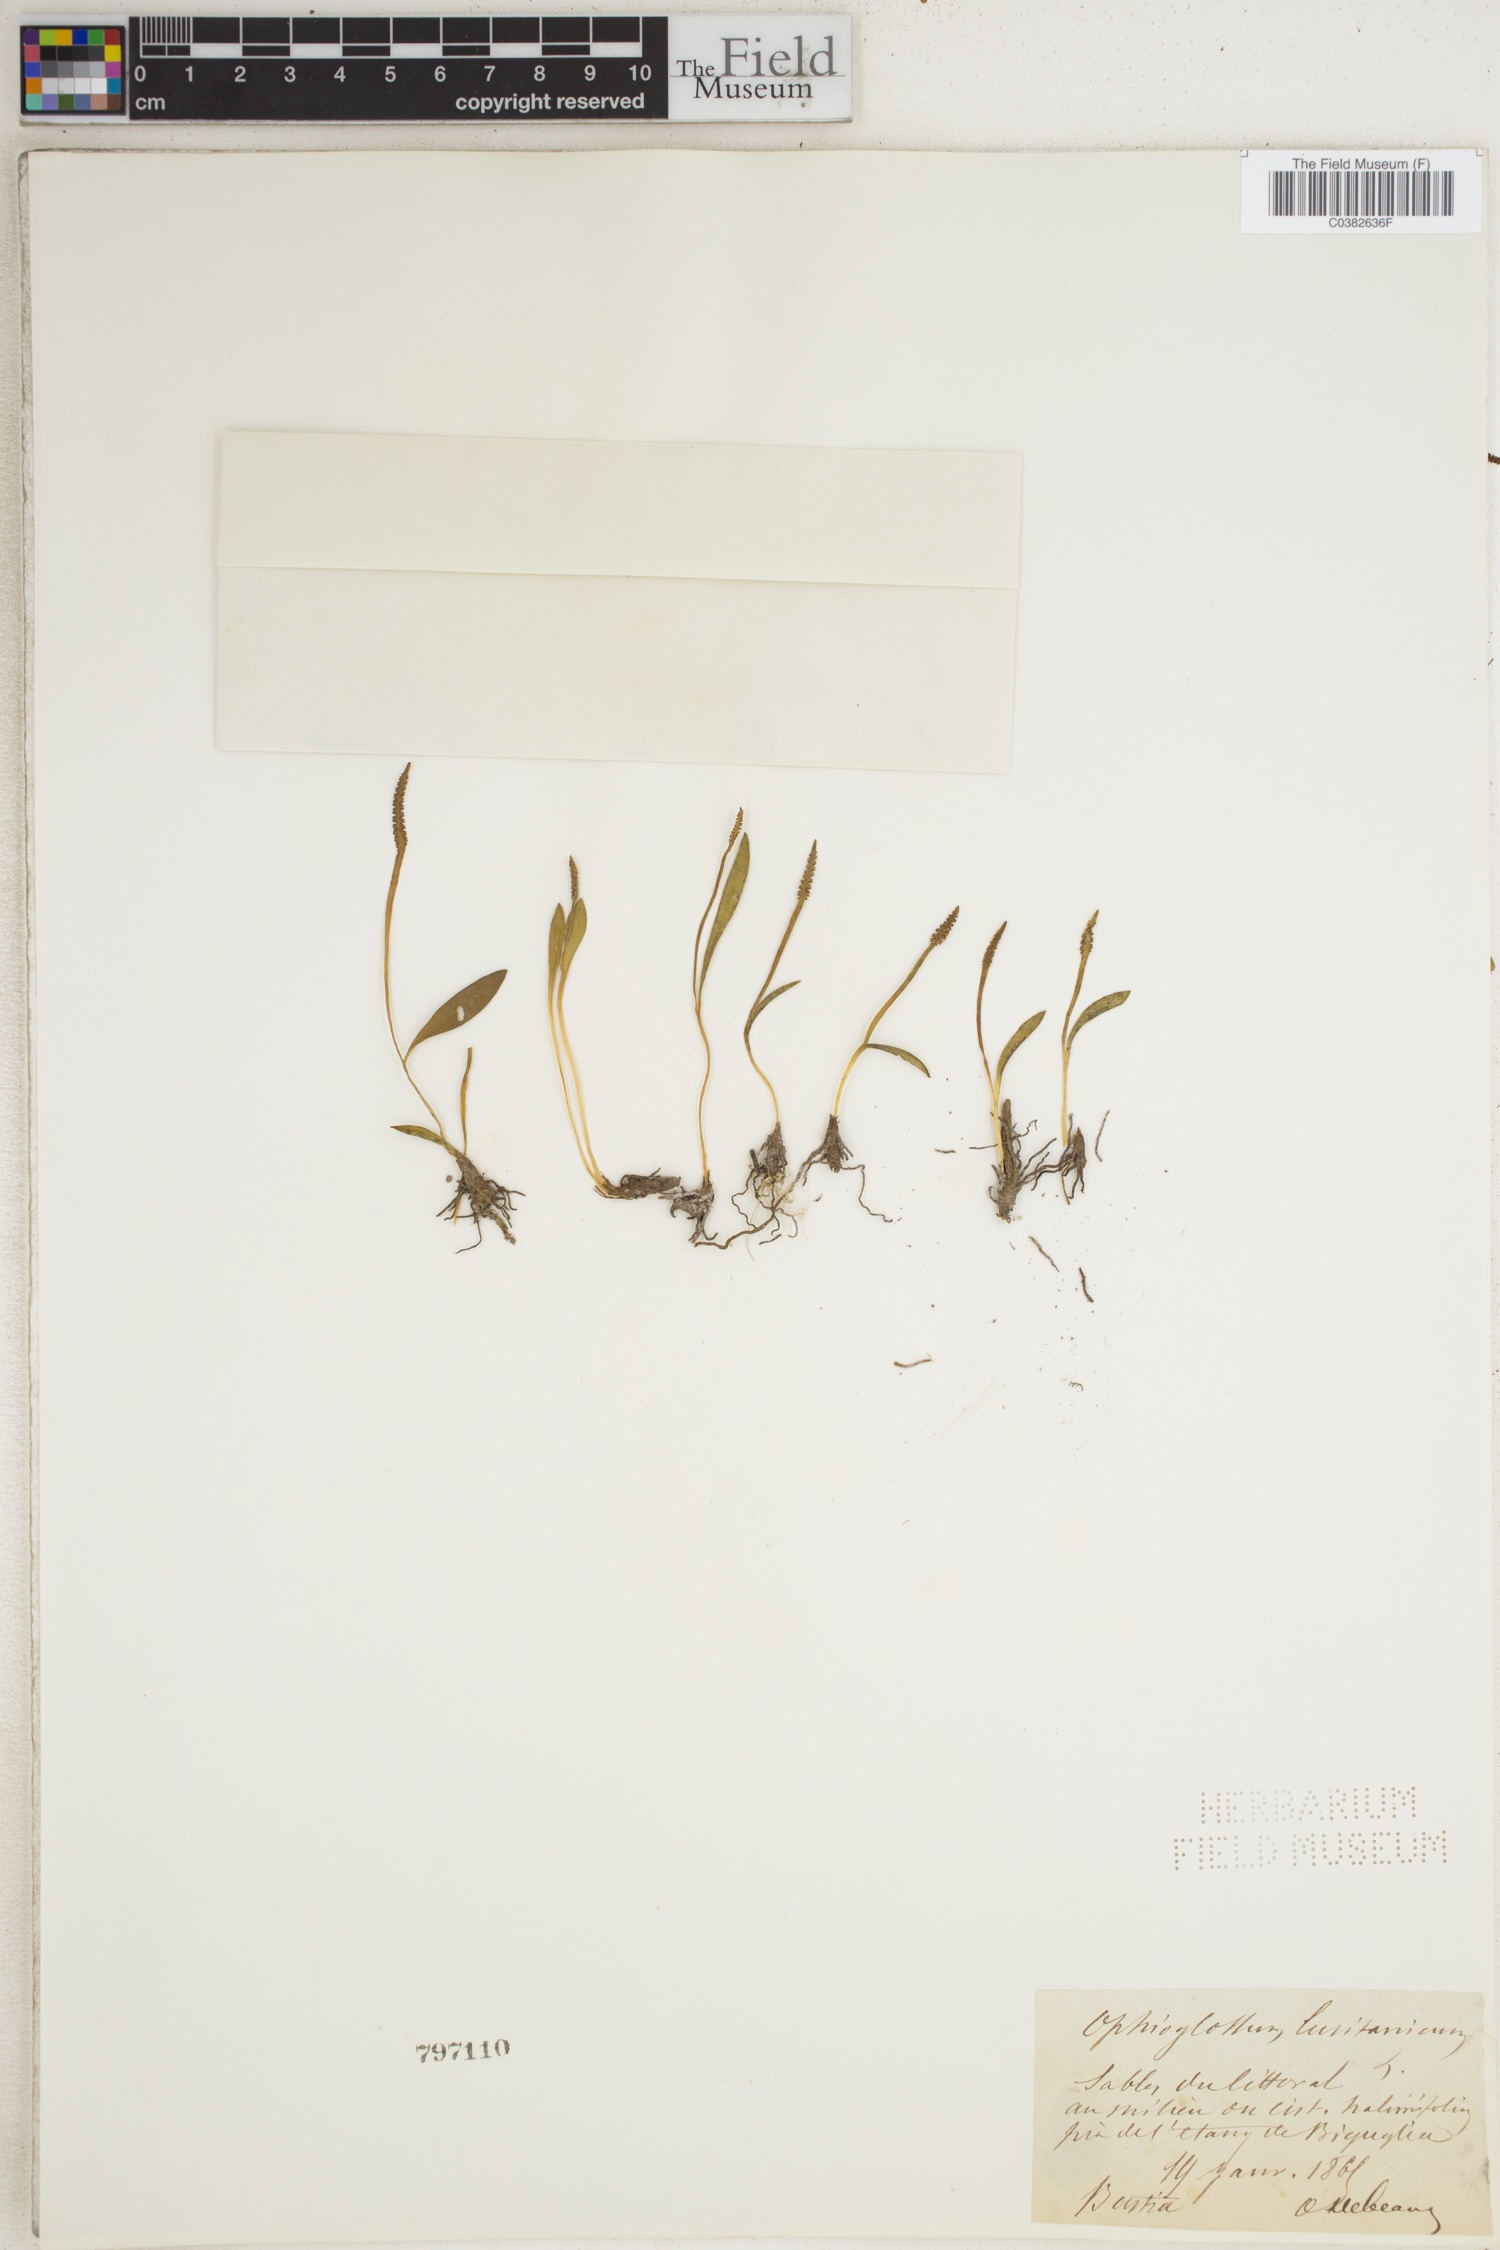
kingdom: Plantae
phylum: Tracheophyta
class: Polypodiopsida
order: Ophioglossales
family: Ophioglossaceae
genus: Ophioglossum
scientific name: Ophioglossum lusitanicum
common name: Least adder's-tongue
